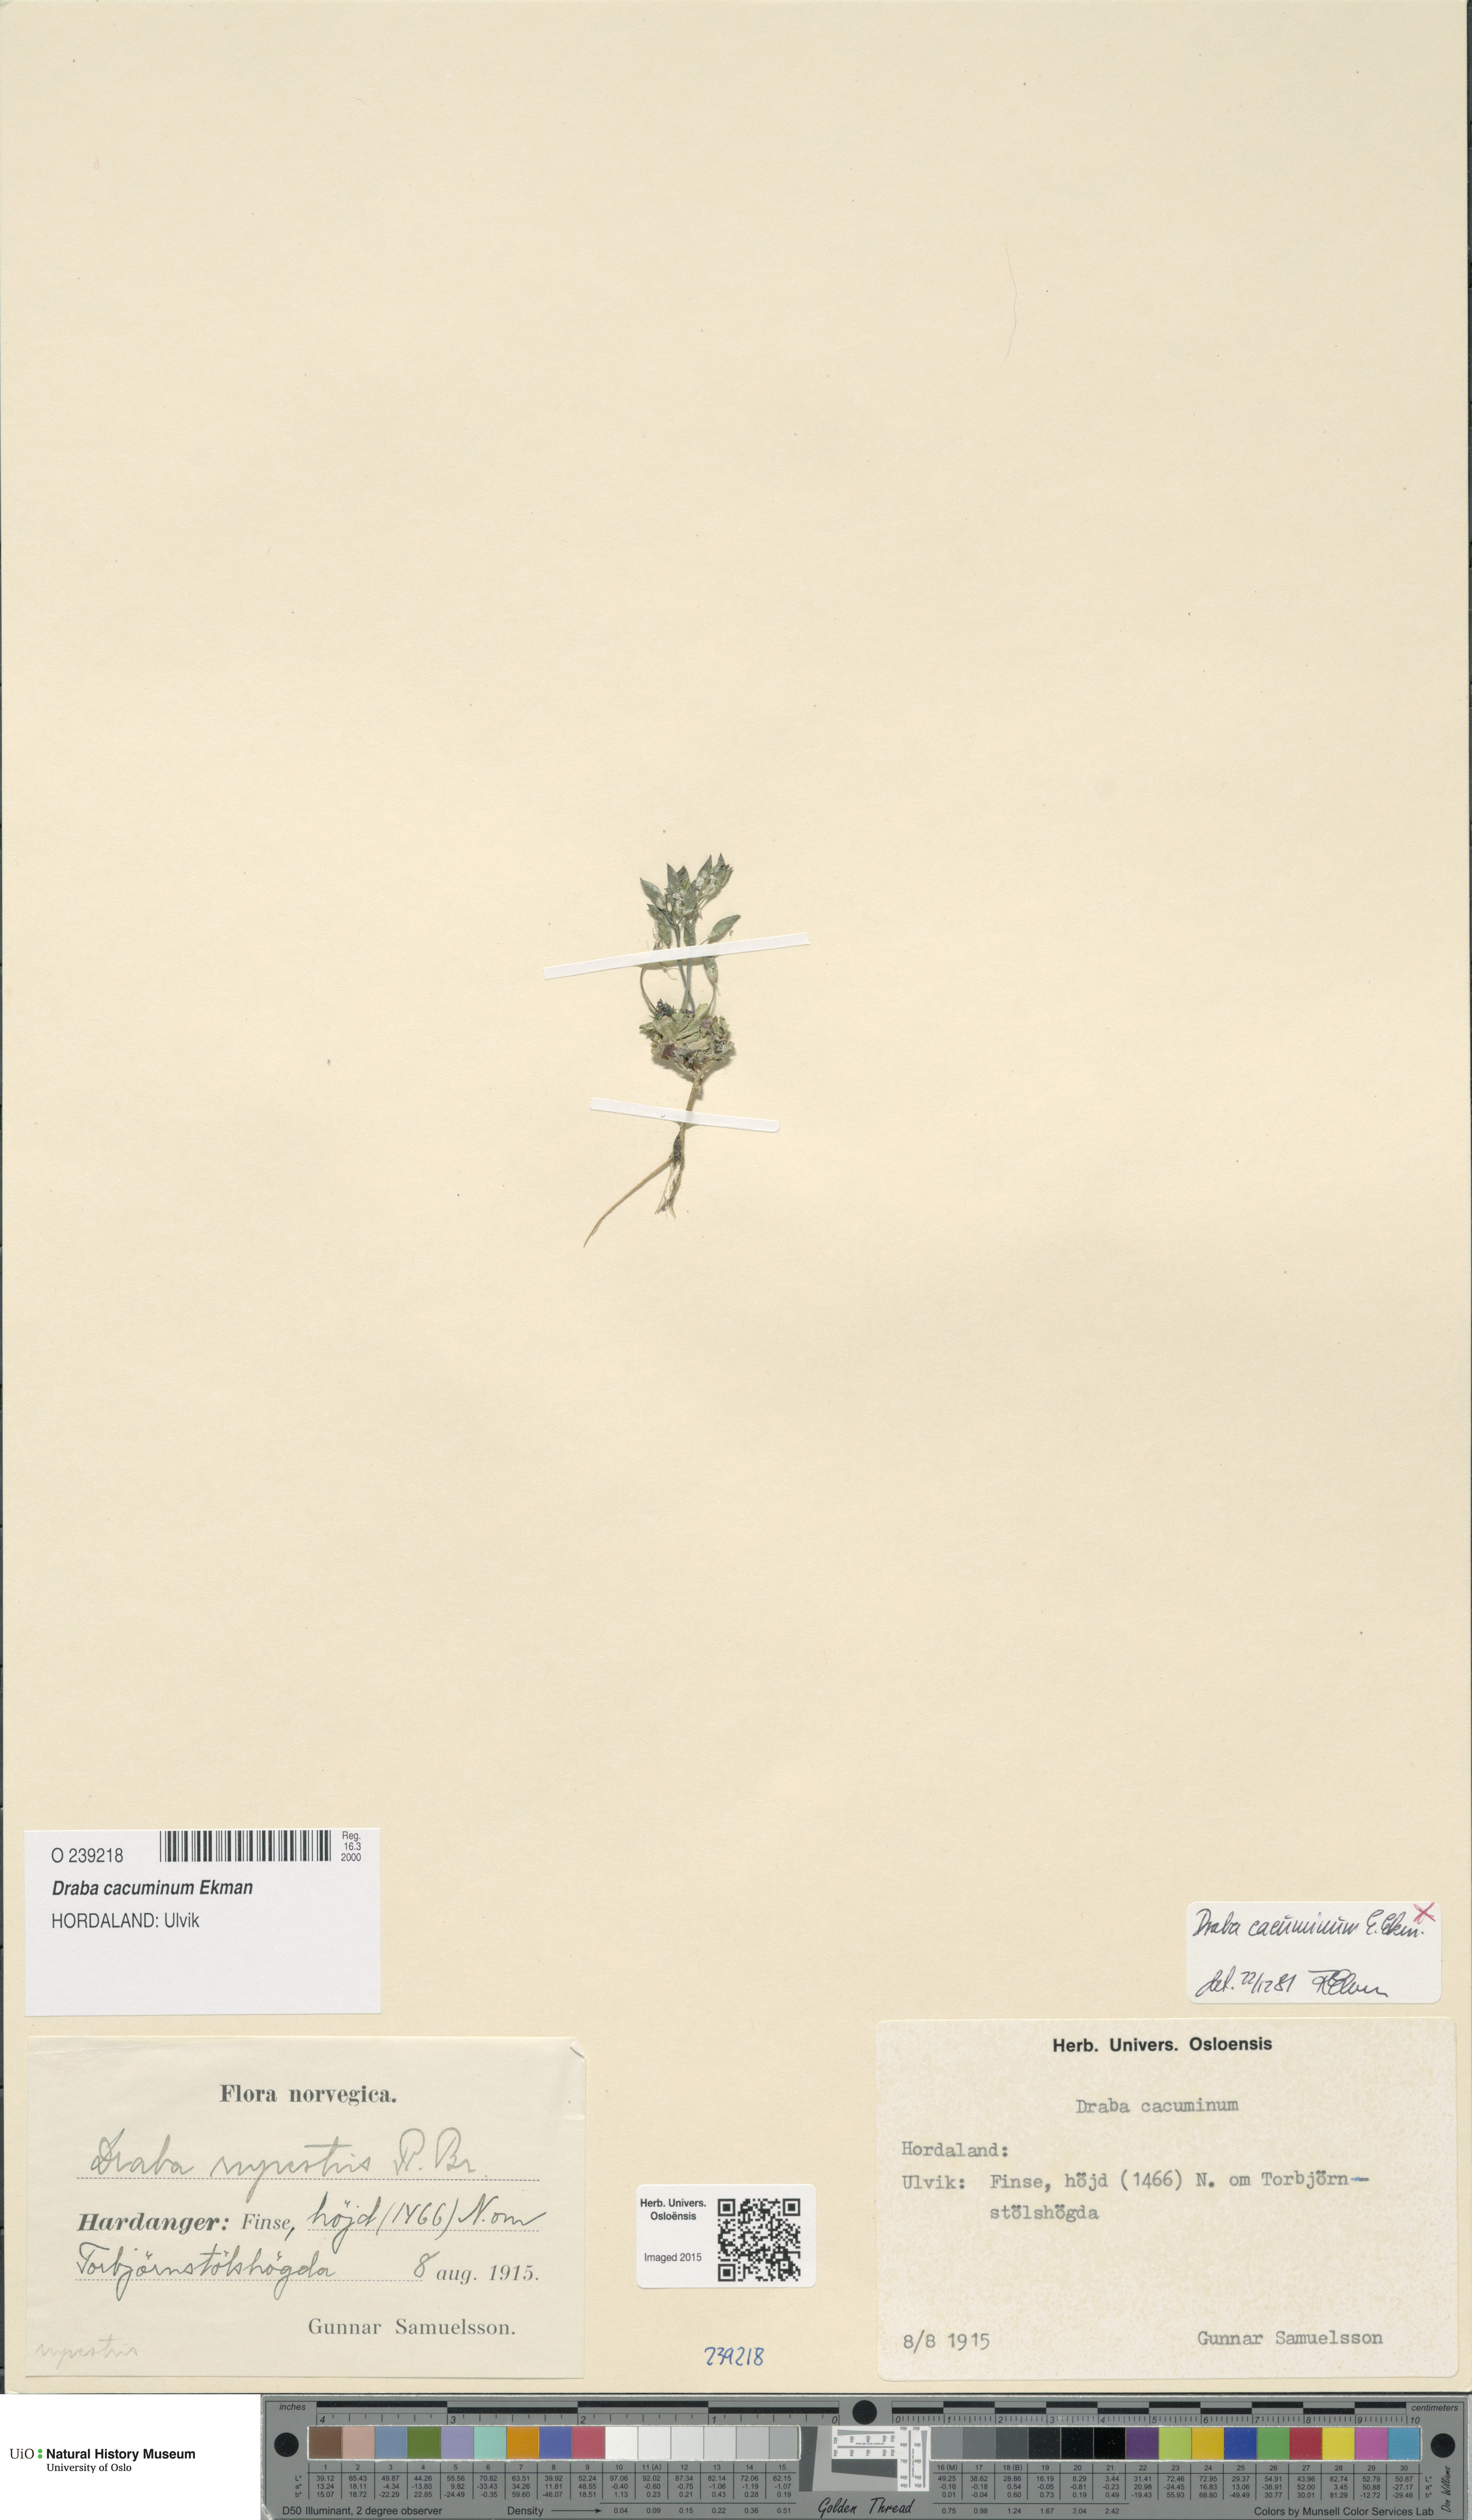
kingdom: Plantae
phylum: Tracheophyta
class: Magnoliopsida
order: Brassicales
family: Brassicaceae
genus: Draba
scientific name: Draba cacuminum
